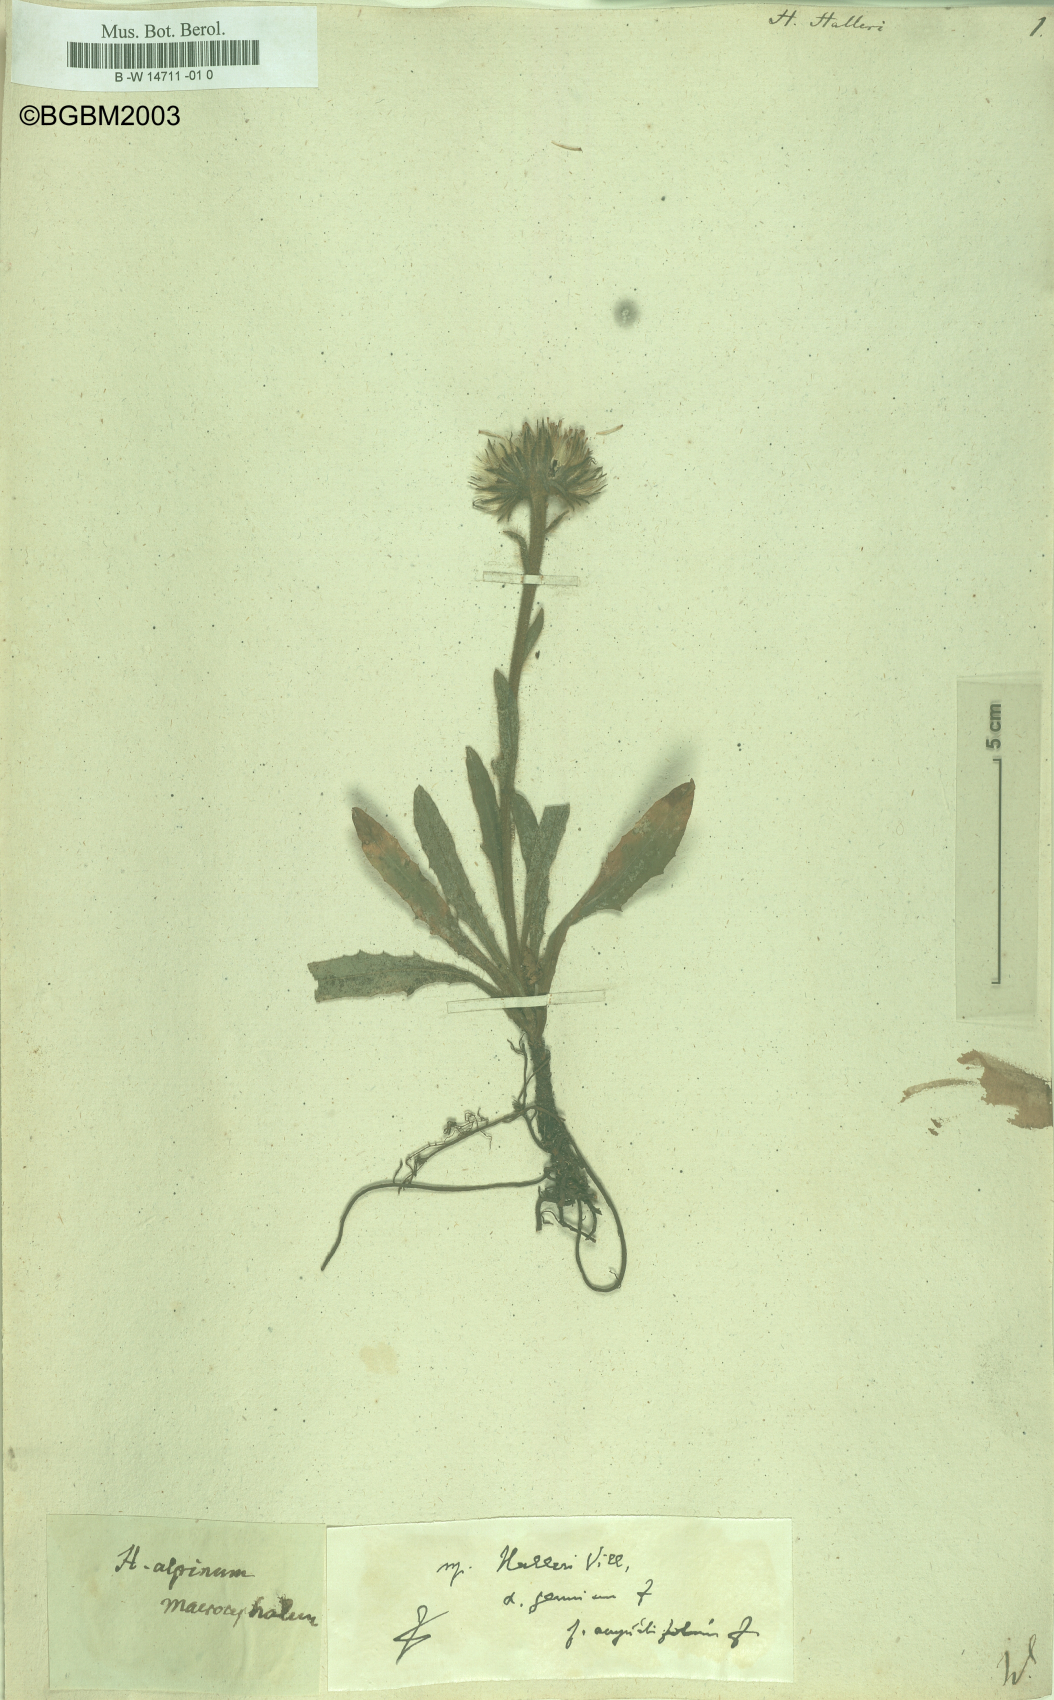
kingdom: Plantae
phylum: Tracheophyta
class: Magnoliopsida
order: Asterales
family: Asteraceae
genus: Hieracium
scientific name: Hieracium halleri
